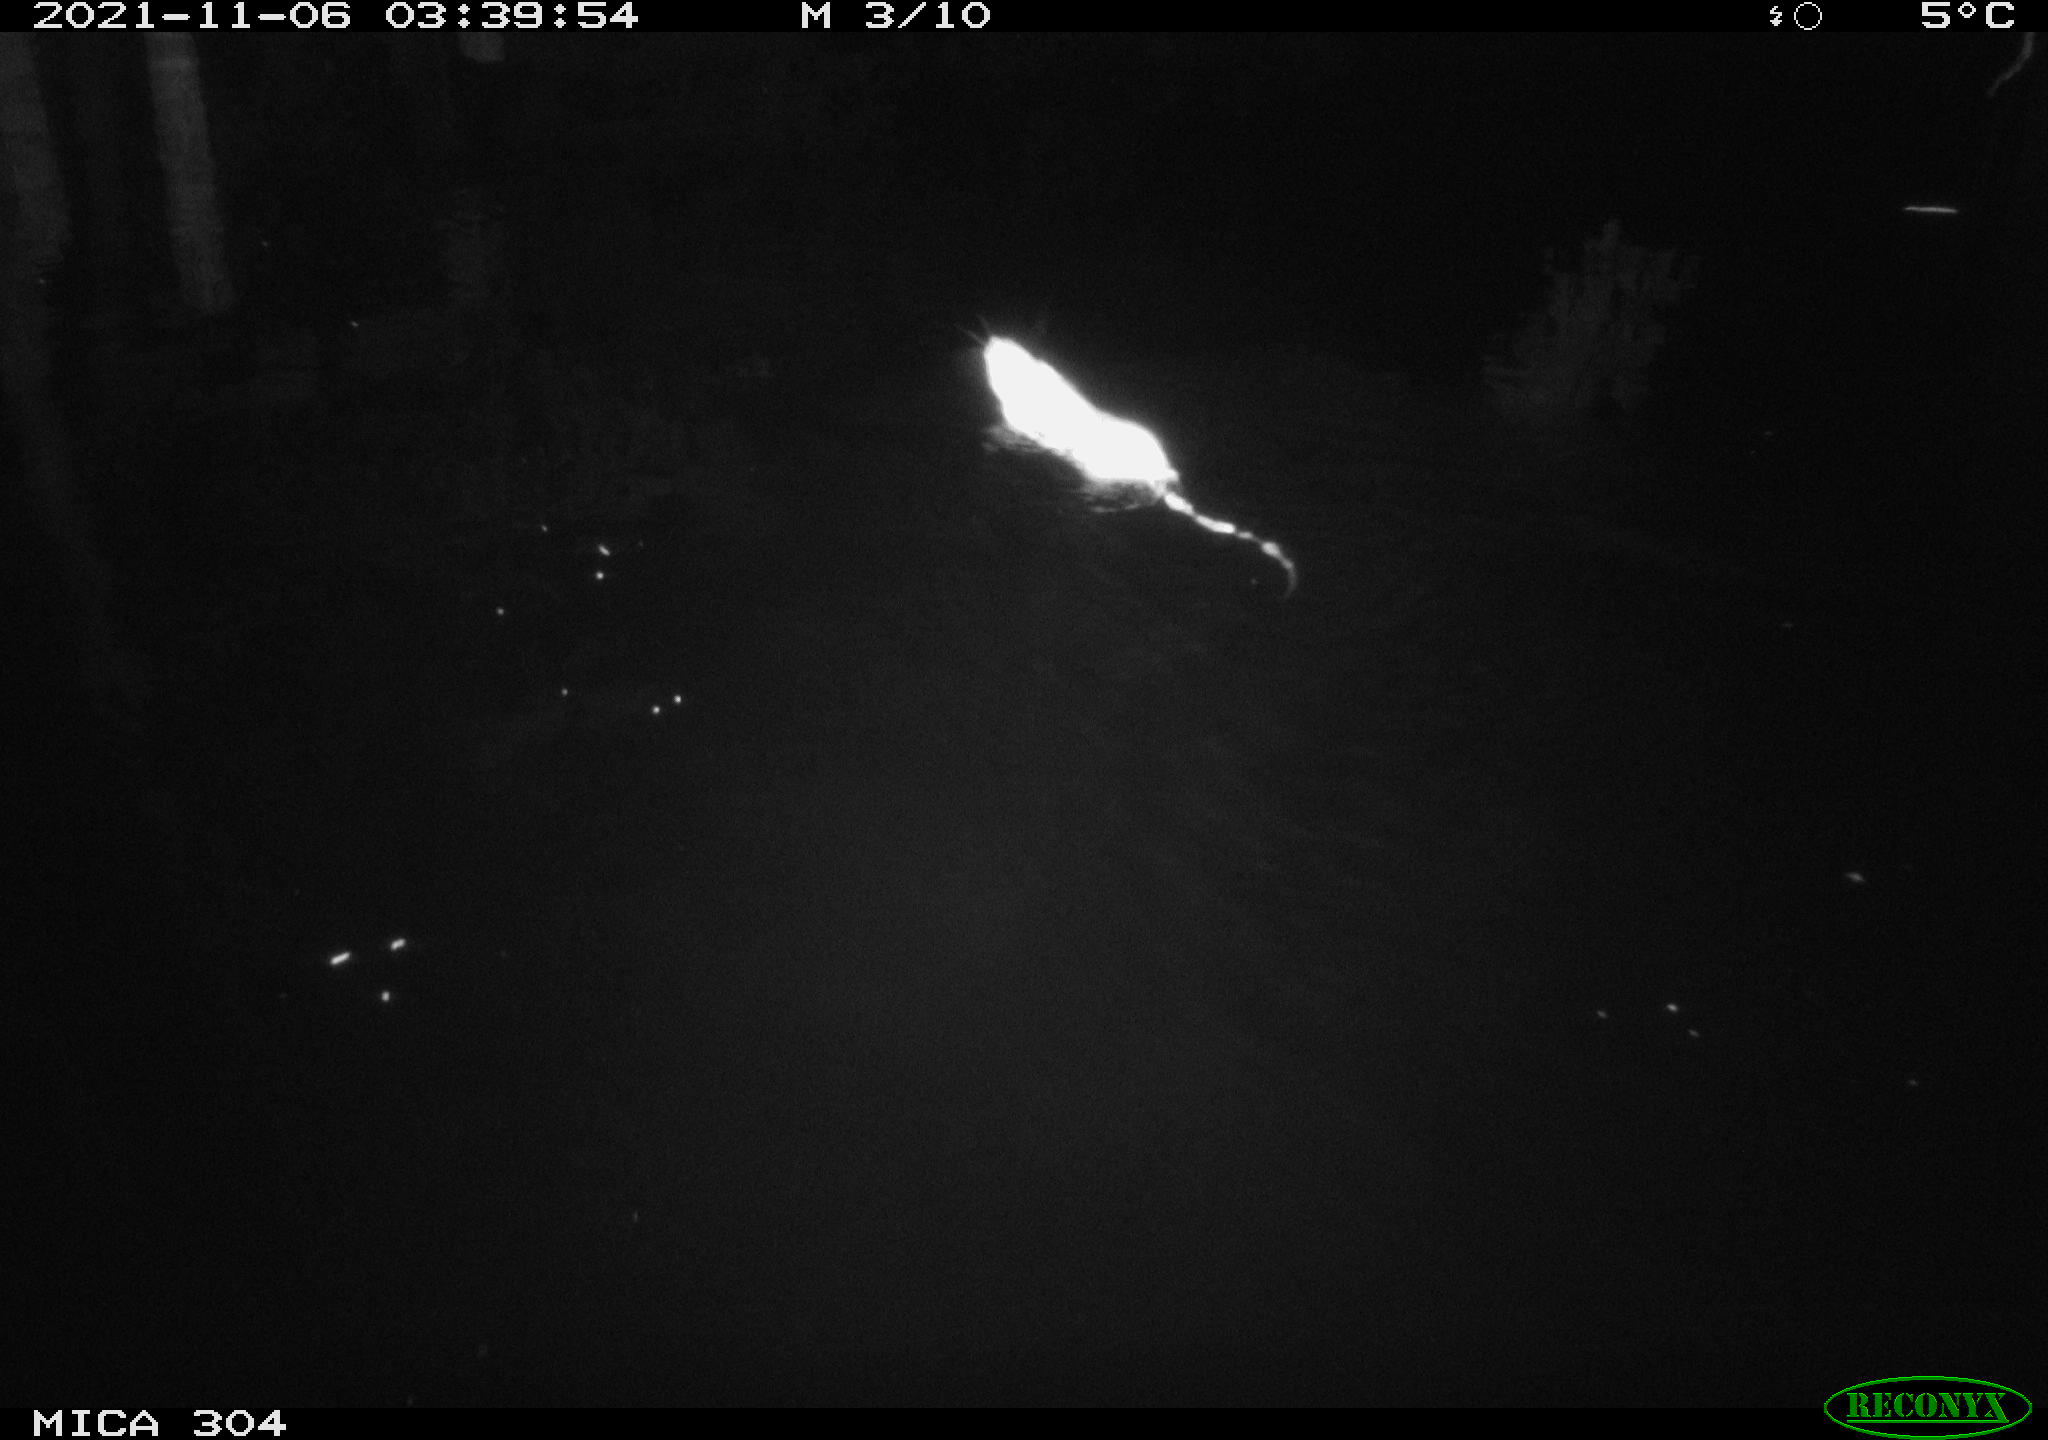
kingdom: Animalia
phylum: Chordata
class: Mammalia
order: Rodentia
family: Muridae
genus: Rattus
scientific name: Rattus norvegicus
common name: Brown rat
